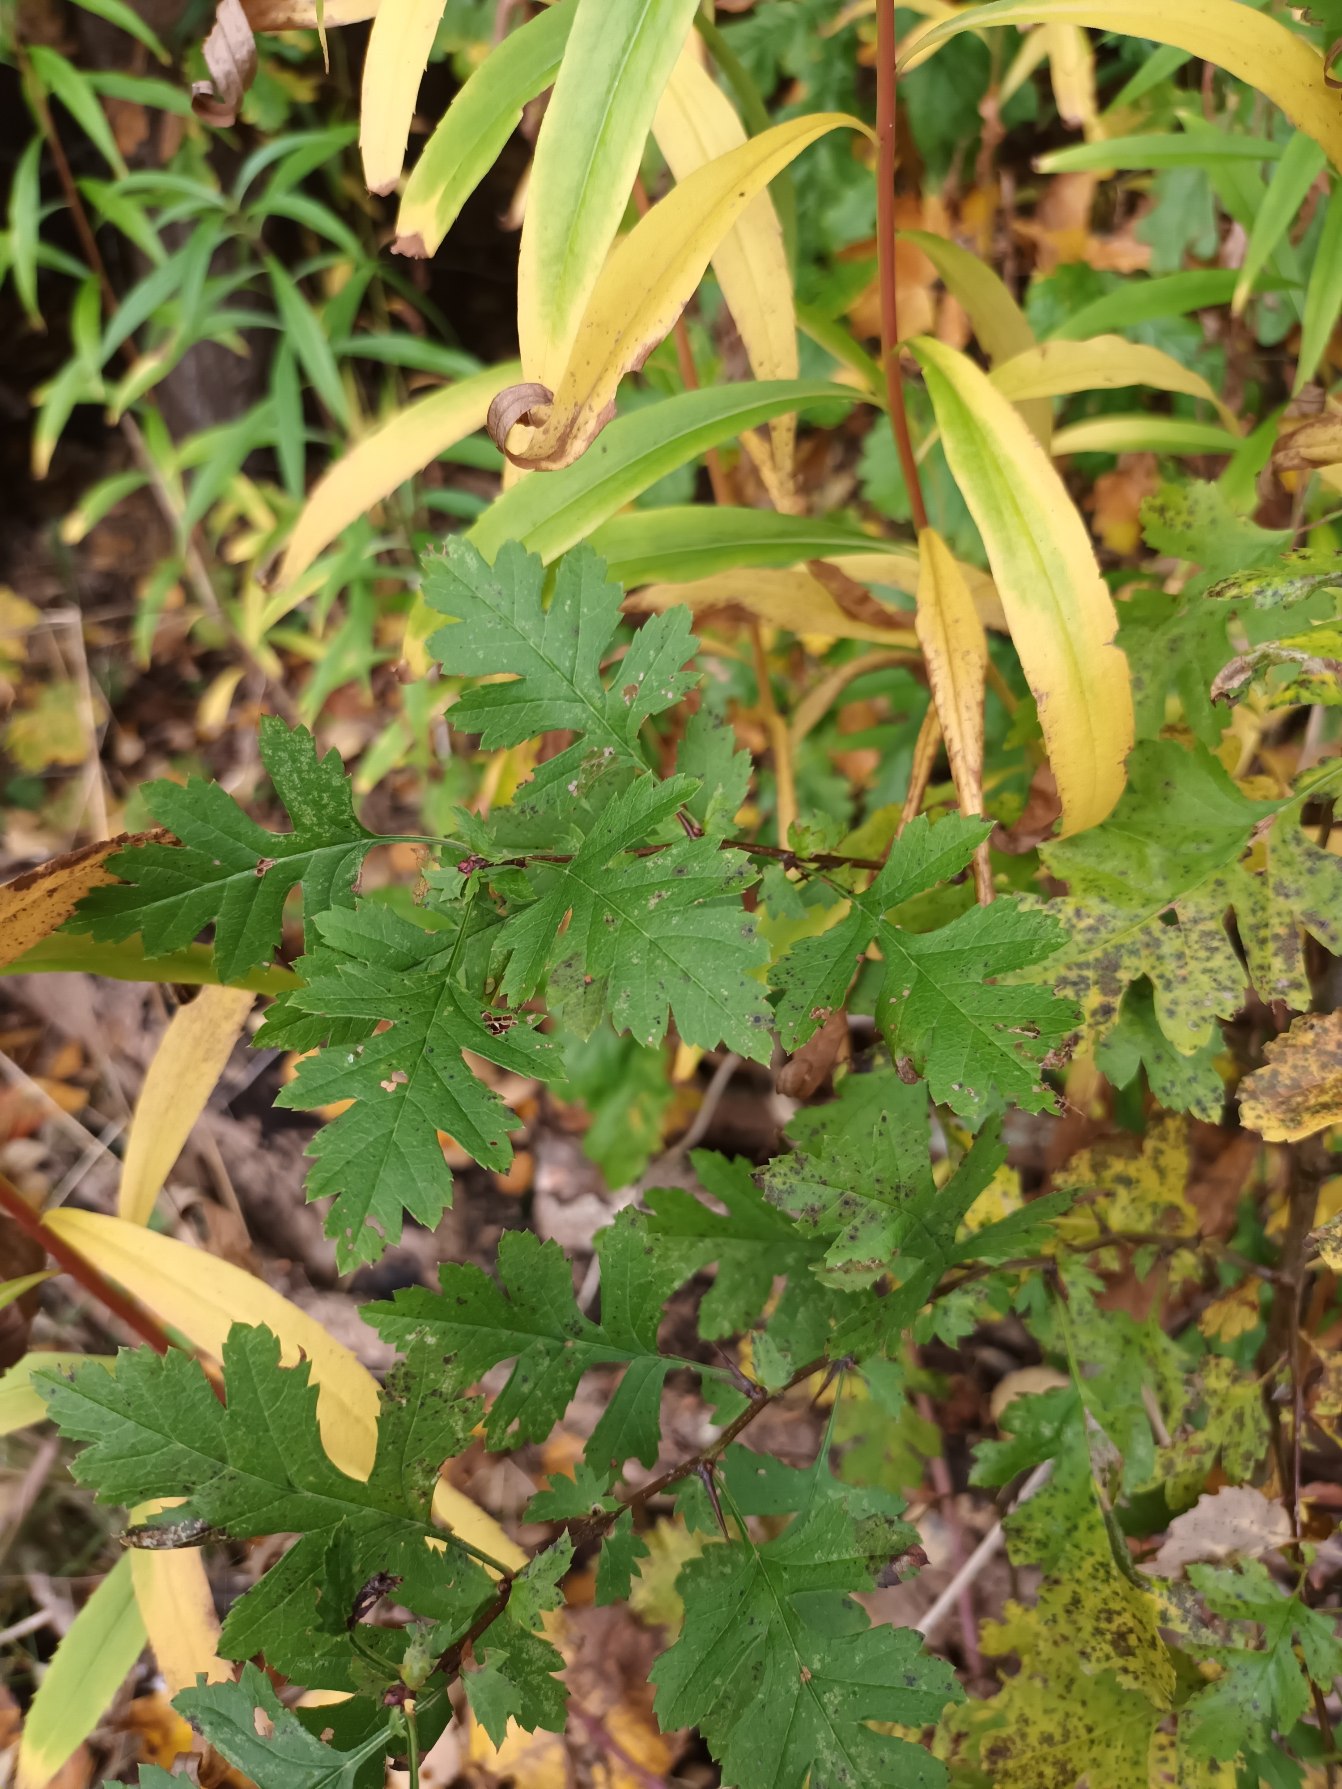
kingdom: Plantae
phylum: Tracheophyta
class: Magnoliopsida
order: Rosales
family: Rosaceae
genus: Crataegus
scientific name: Crataegus subsphaerica
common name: Engriflet hvidtjørn × koral-hvidtjørn
